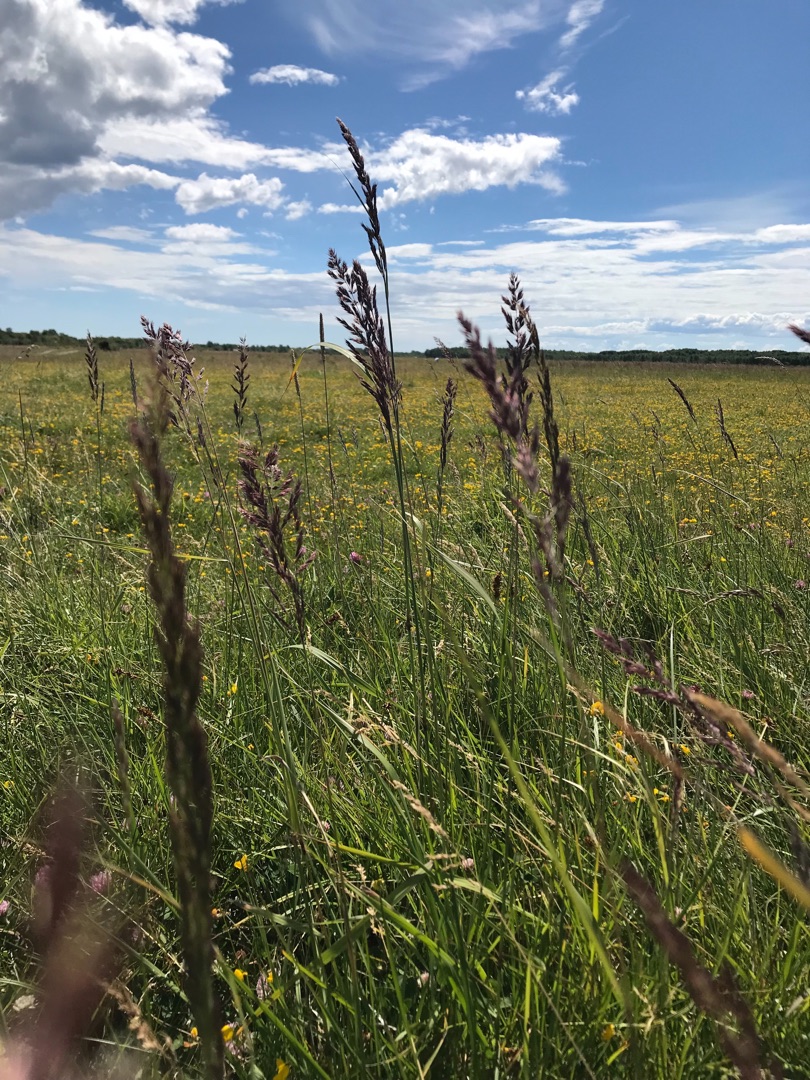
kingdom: Plantae
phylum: Tracheophyta
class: Liliopsida
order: Poales
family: Poaceae
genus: Calamagrostis
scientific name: Calamagrostis epigejos
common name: Bjerg-rørhvene
